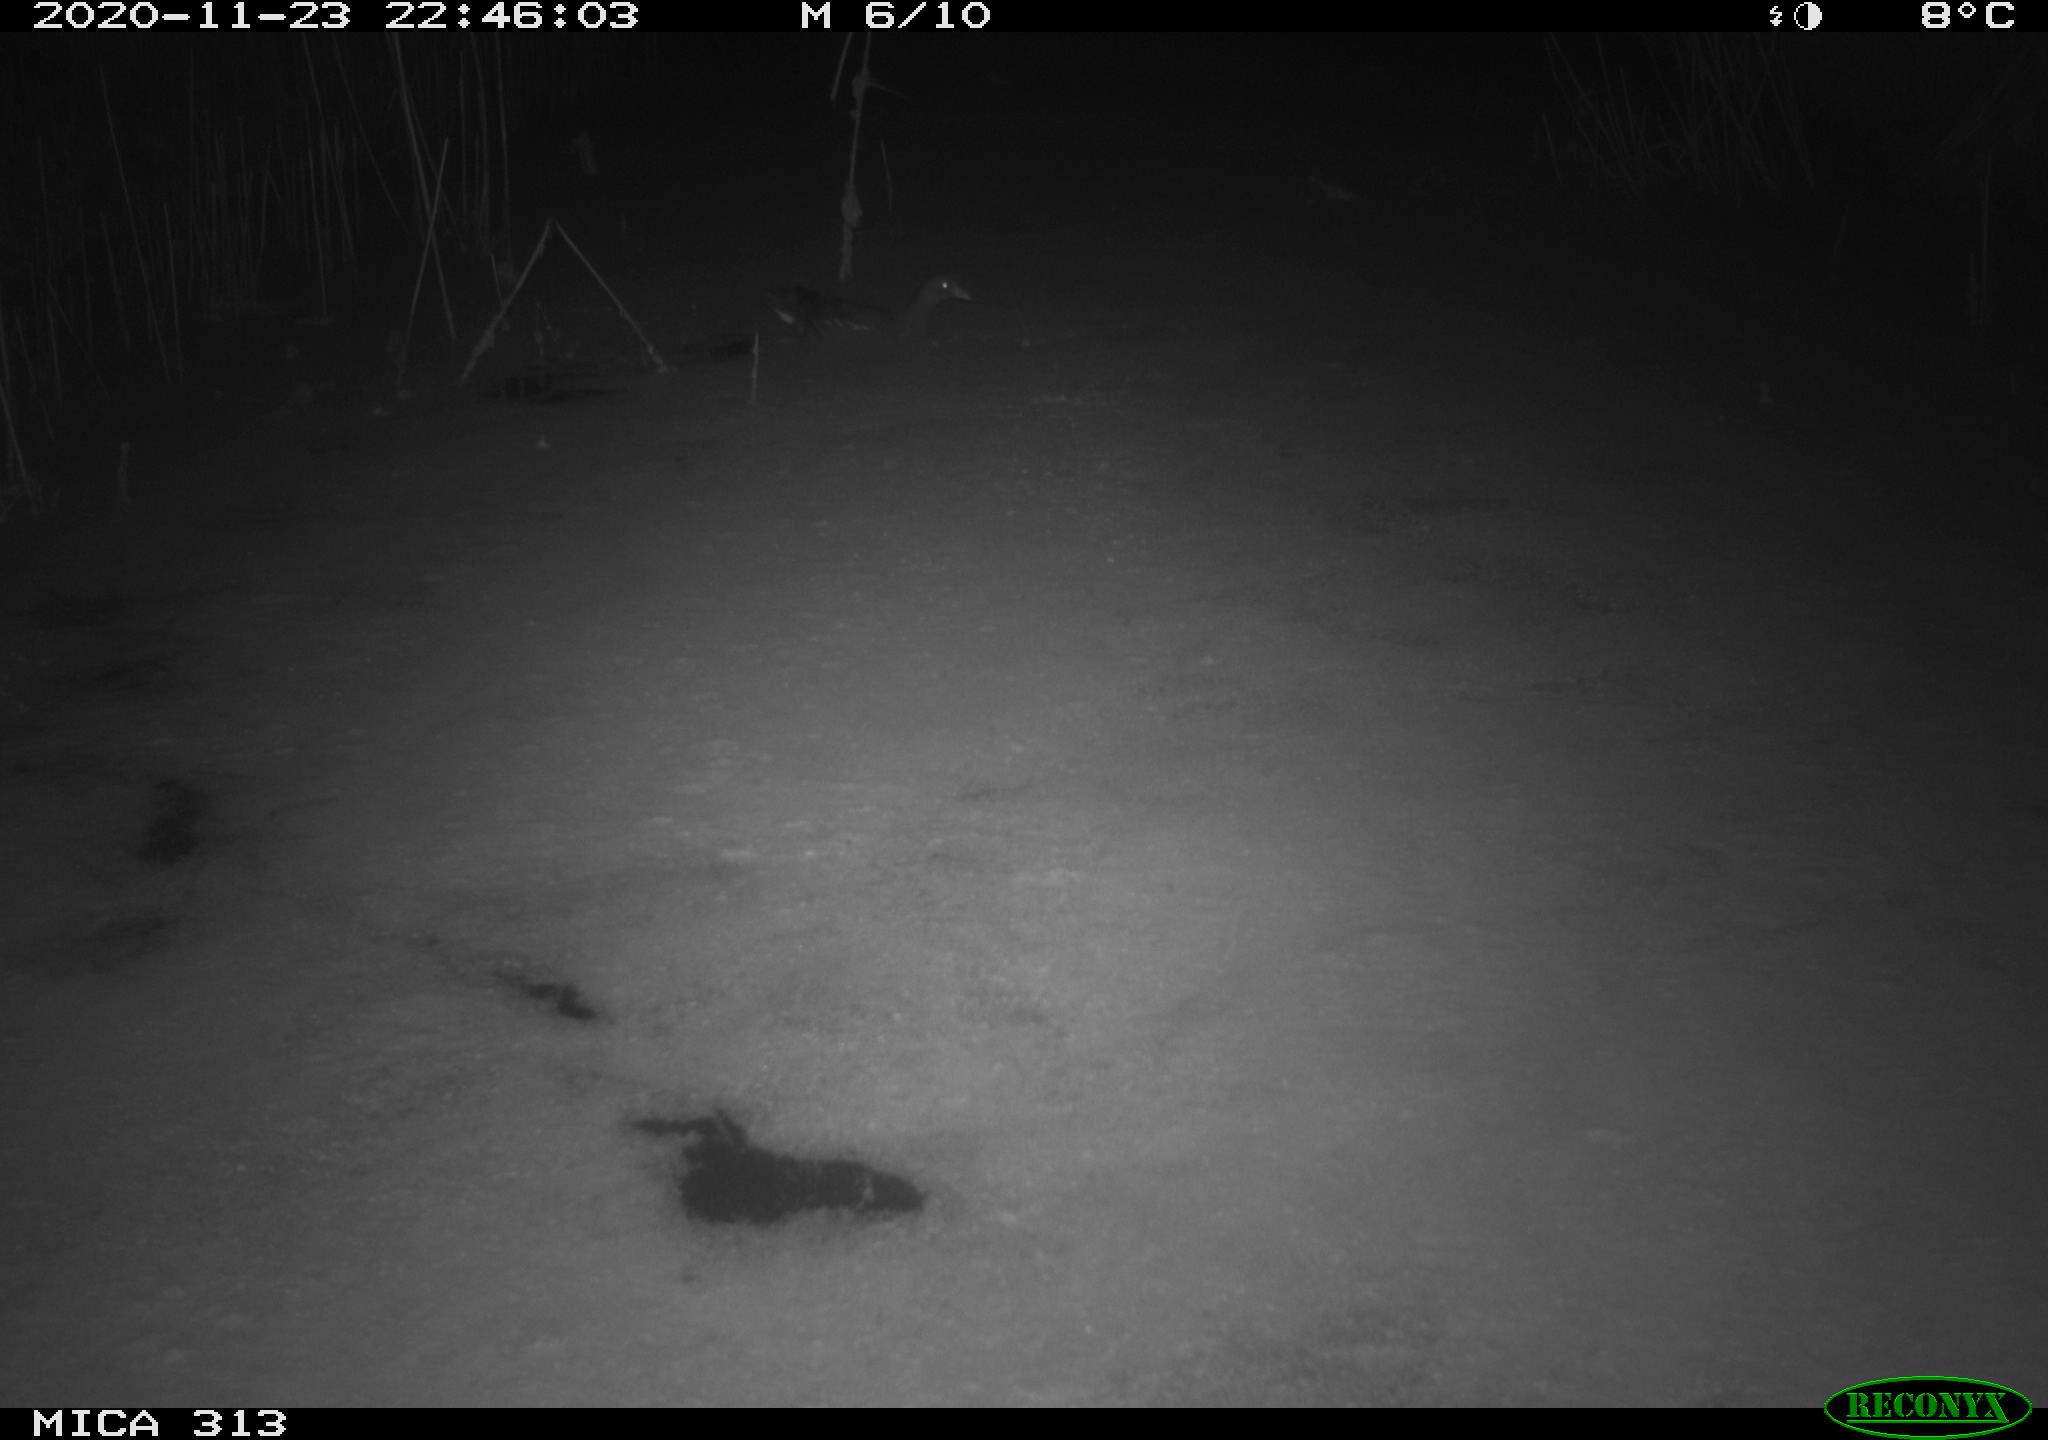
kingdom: Animalia
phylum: Chordata
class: Aves
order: Gruiformes
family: Rallidae
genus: Gallinula
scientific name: Gallinula chloropus
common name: Common moorhen
